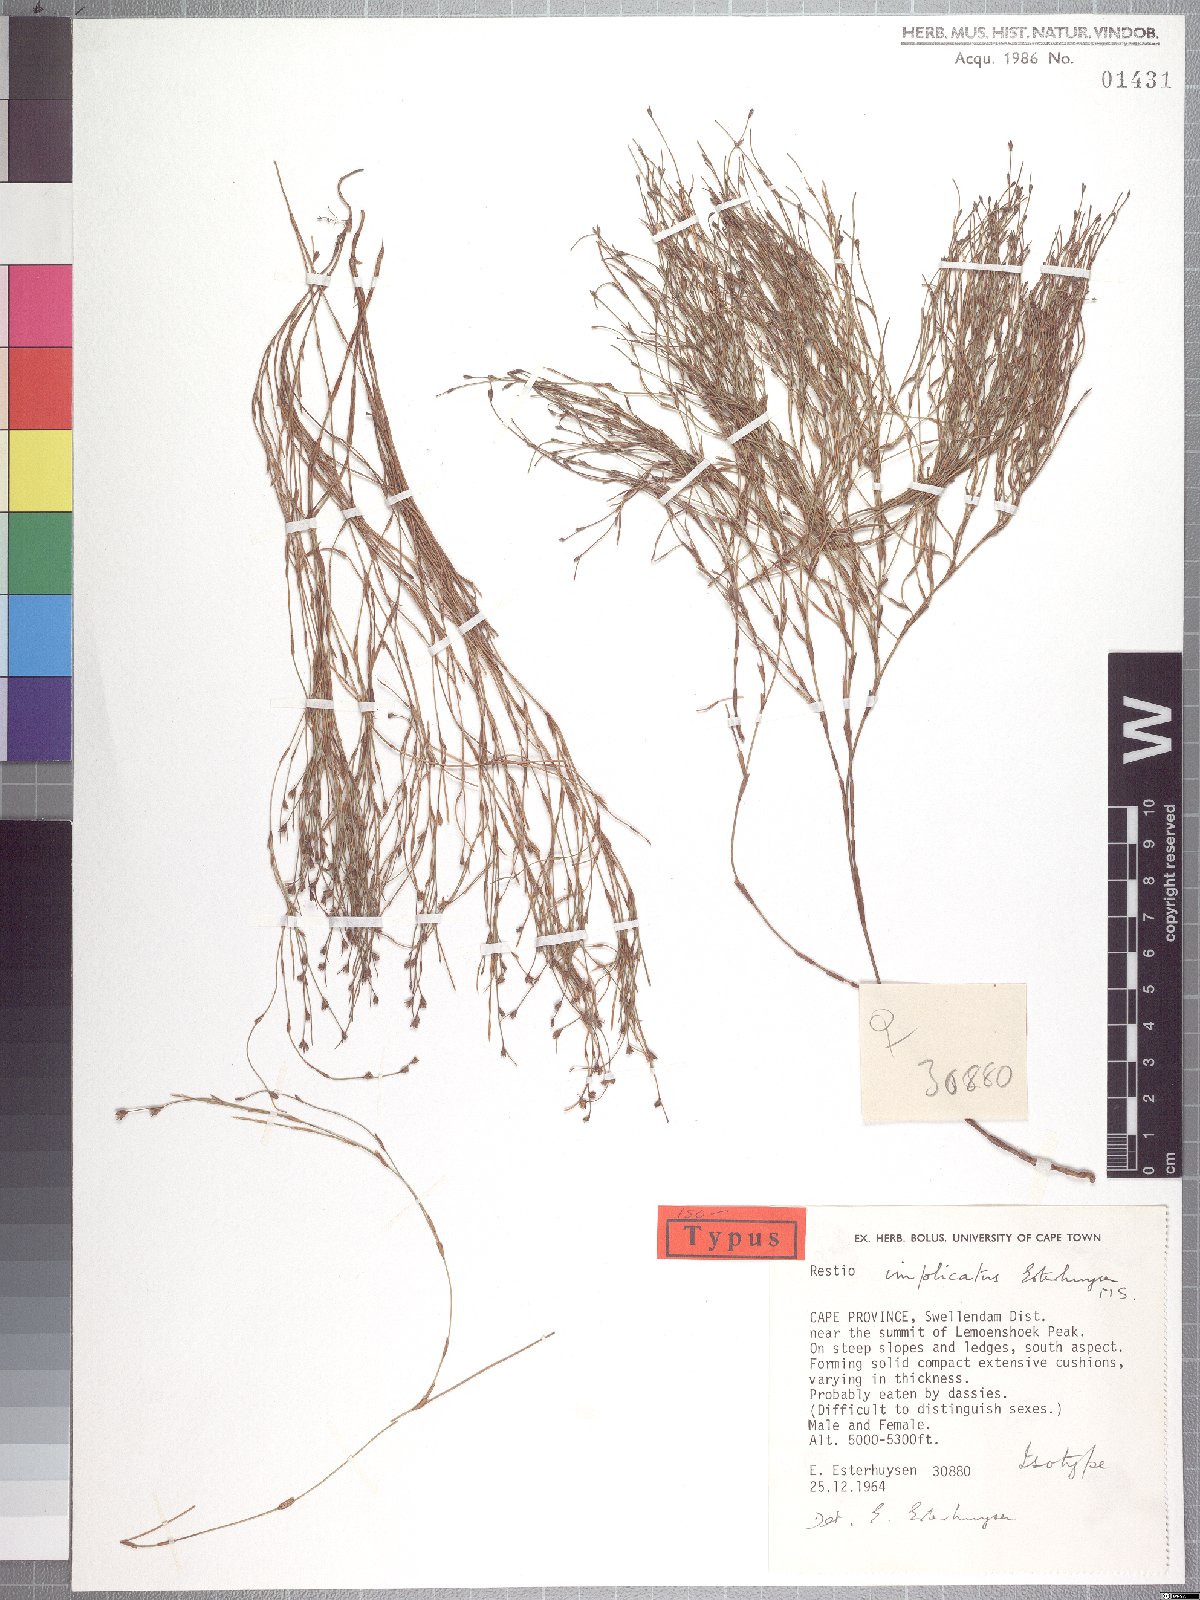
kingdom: Plantae
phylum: Tracheophyta
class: Liliopsida
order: Poales
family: Restionaceae
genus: Restio
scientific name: Restio implicatus
